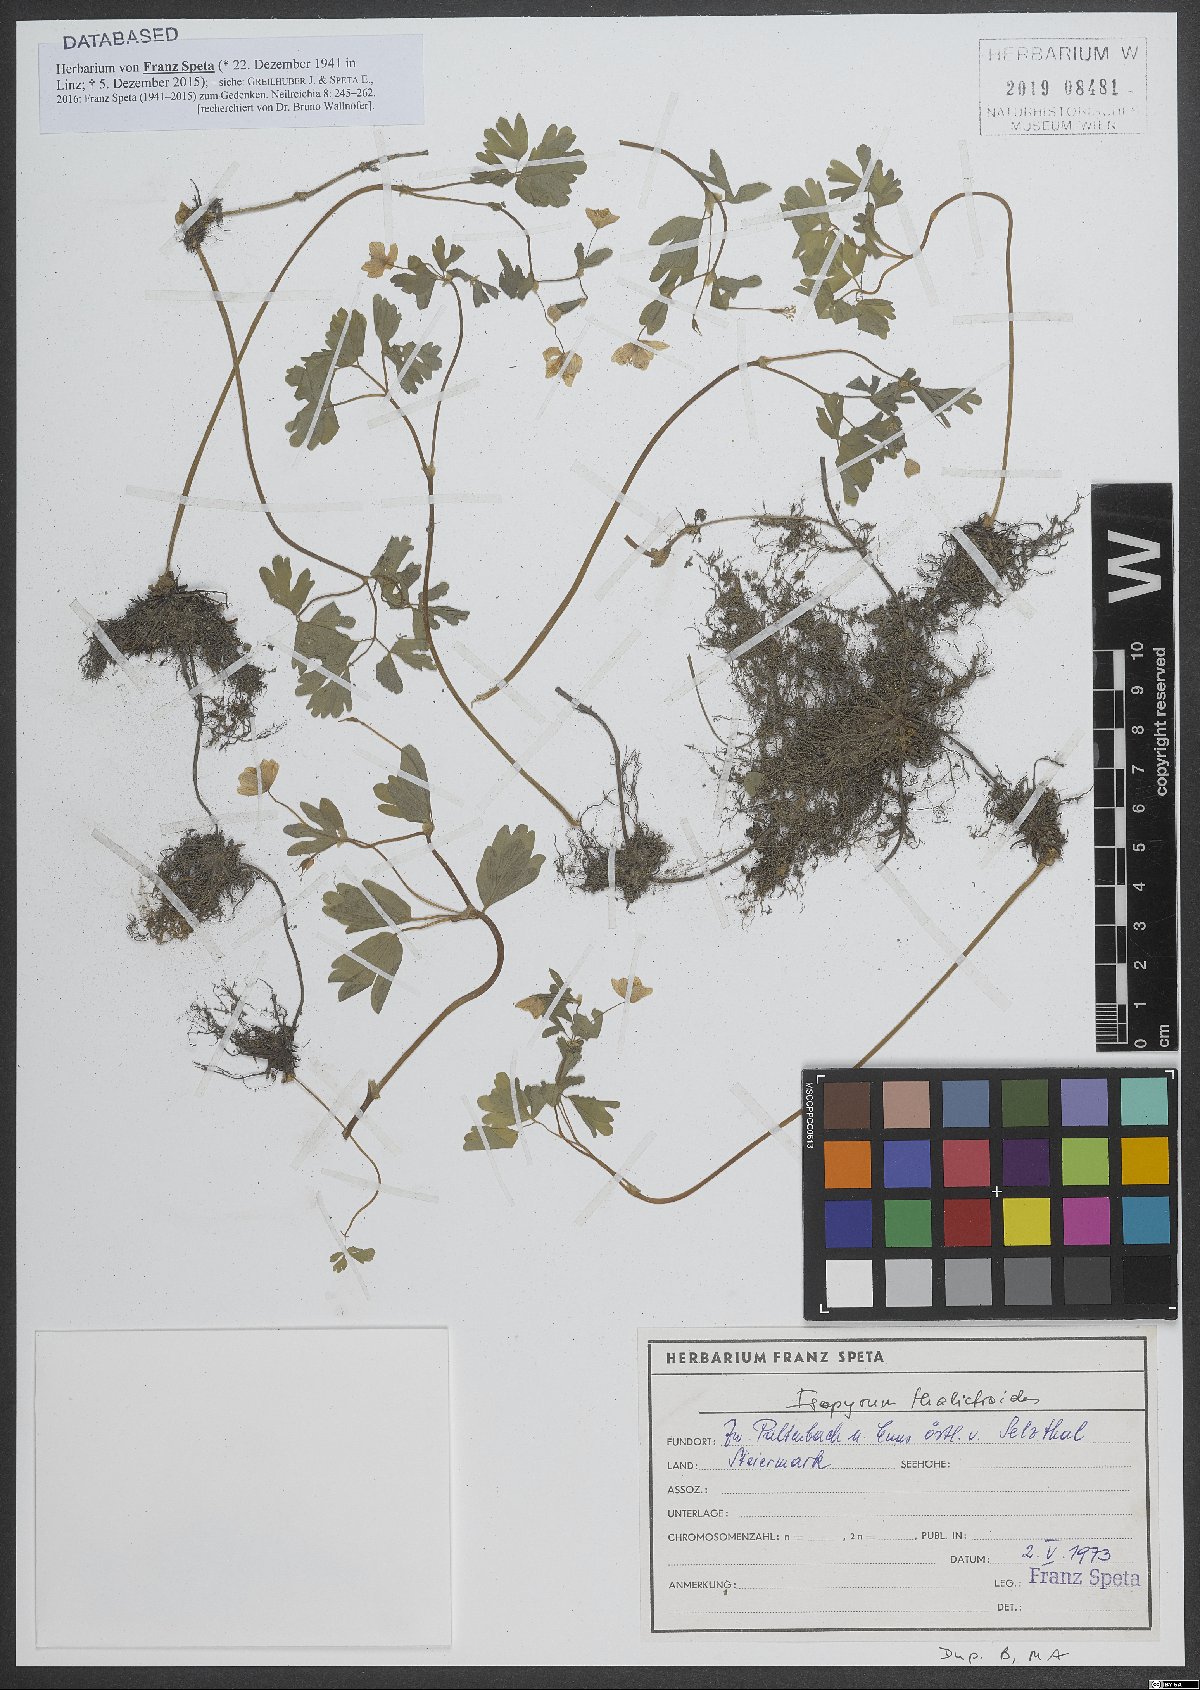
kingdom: Plantae
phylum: Tracheophyta
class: Magnoliopsida
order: Ranunculales
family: Ranunculaceae
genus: Isopyrum
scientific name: Isopyrum thalictroides
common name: Isopyrum
